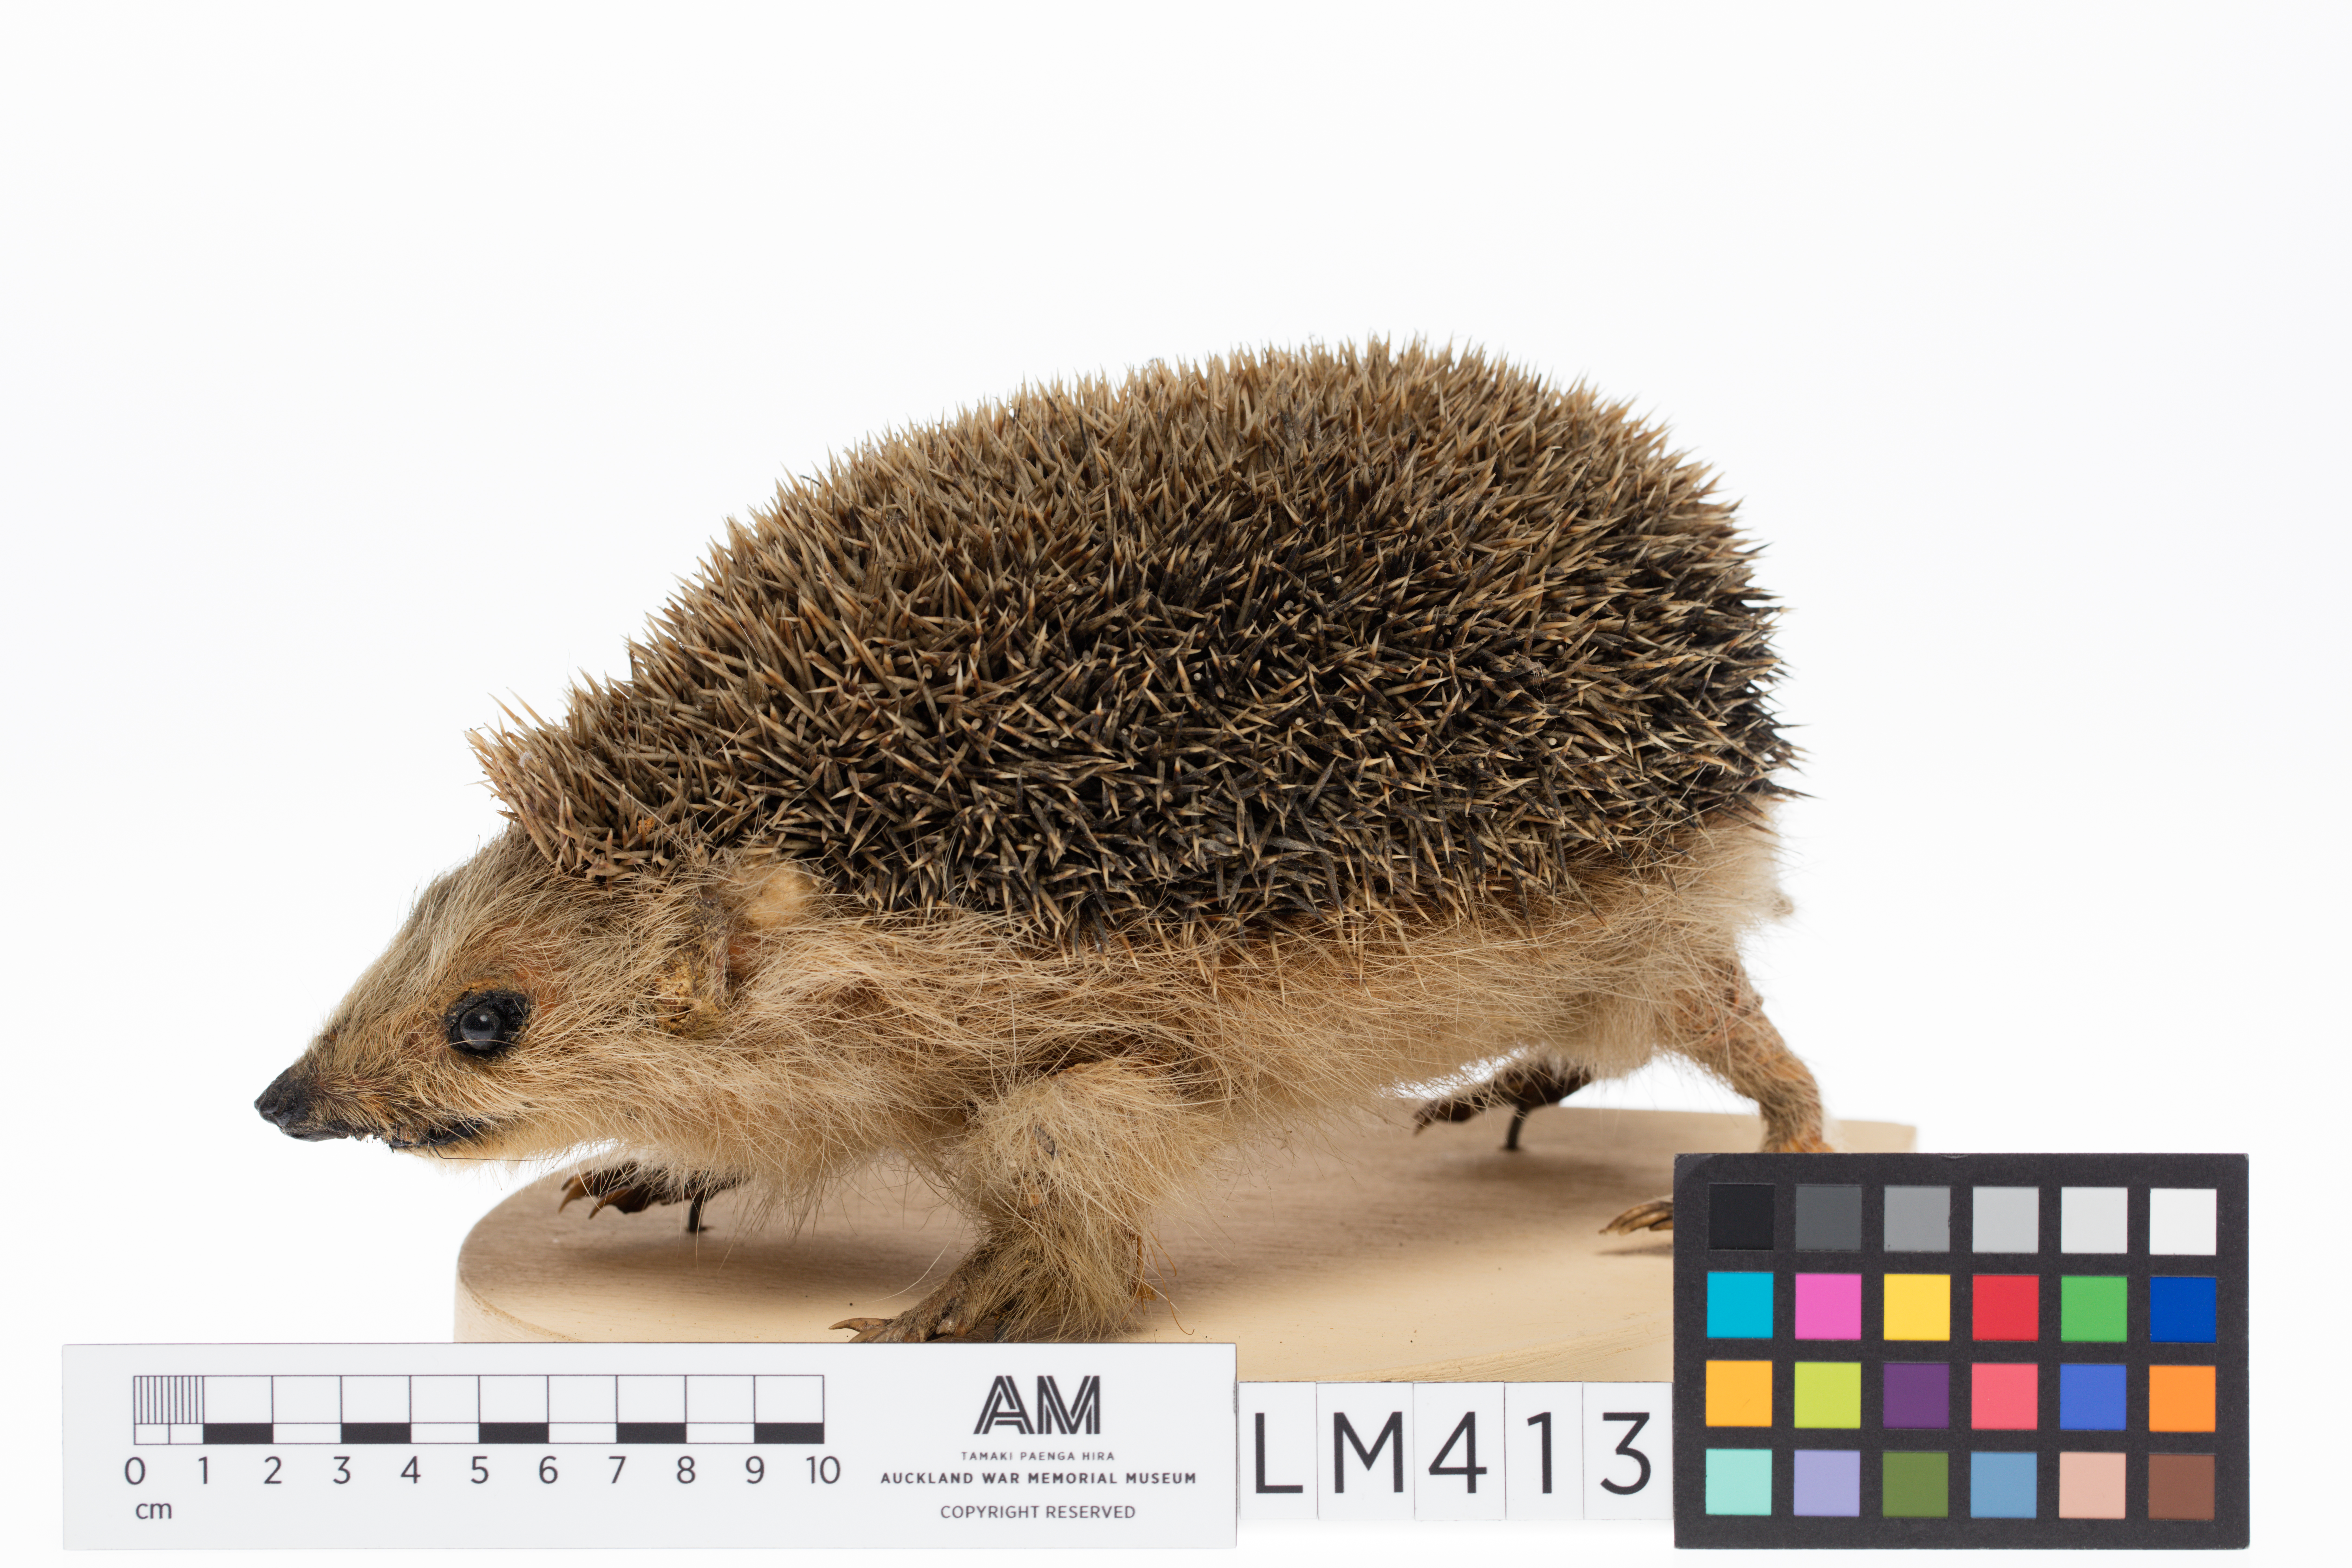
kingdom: Animalia
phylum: Chordata
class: Mammalia
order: Erinaceomorpha
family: Erinaceidae
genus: Erinaceus
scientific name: Erinaceus europaeus
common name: West european hedgehog
